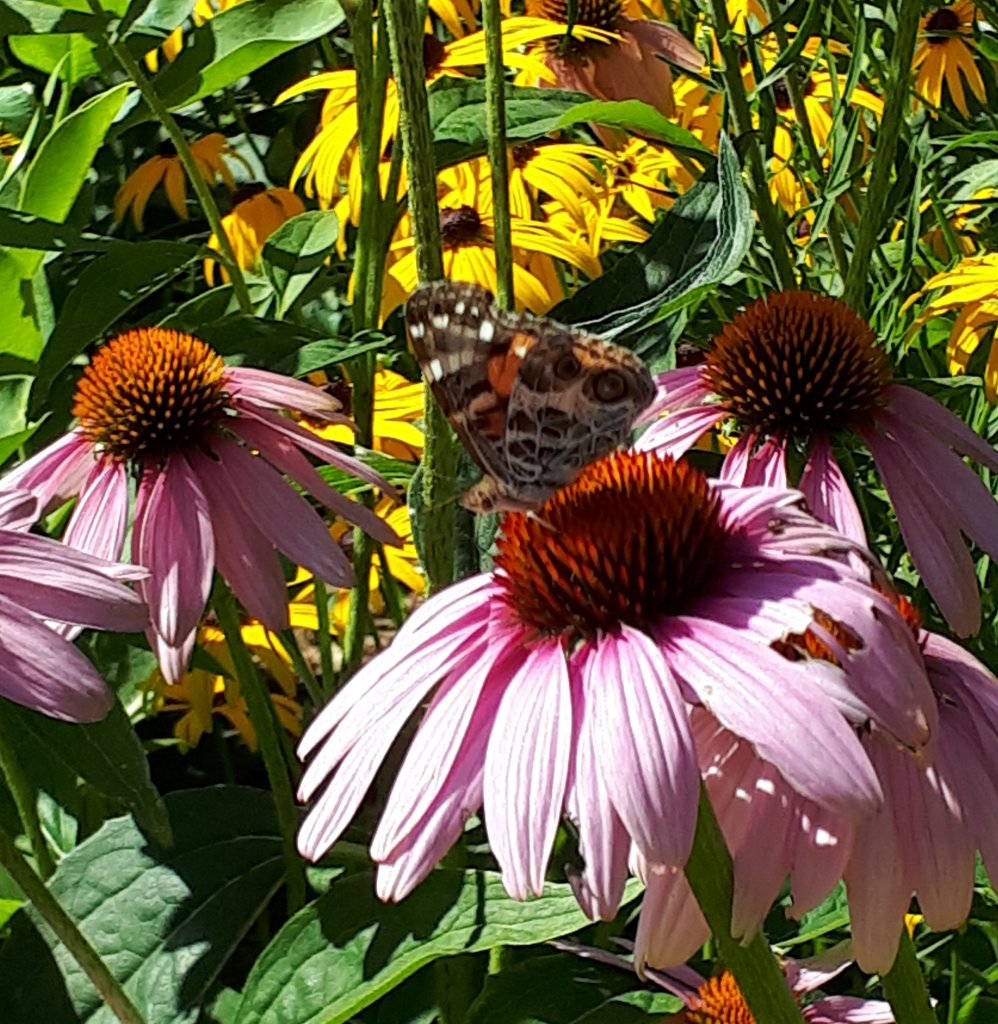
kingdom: Animalia
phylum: Arthropoda
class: Insecta
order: Lepidoptera
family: Nymphalidae
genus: Vanessa
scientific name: Vanessa virginiensis
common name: American Lady
